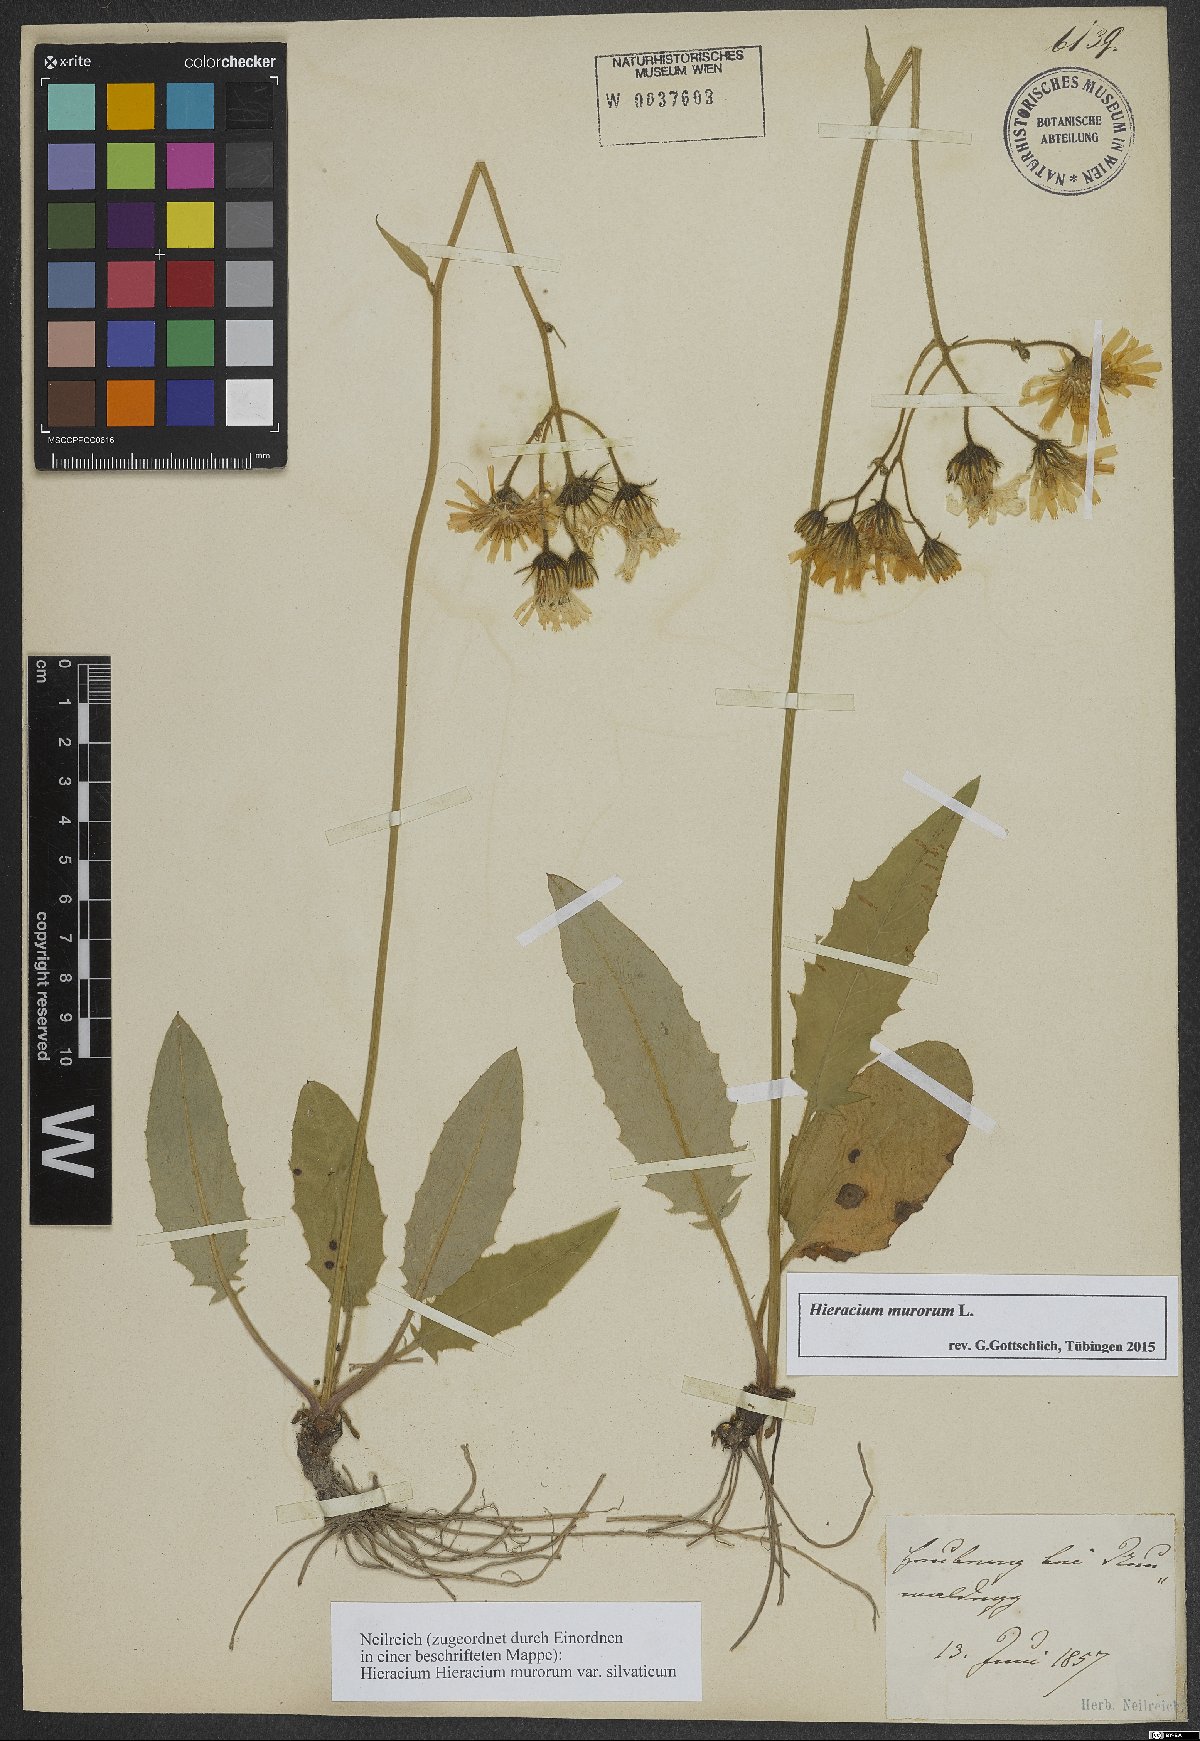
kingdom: Plantae
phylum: Tracheophyta
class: Magnoliopsida
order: Asterales
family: Asteraceae
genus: Hieracium
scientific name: Hieracium murorum
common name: Wall hawkweed
